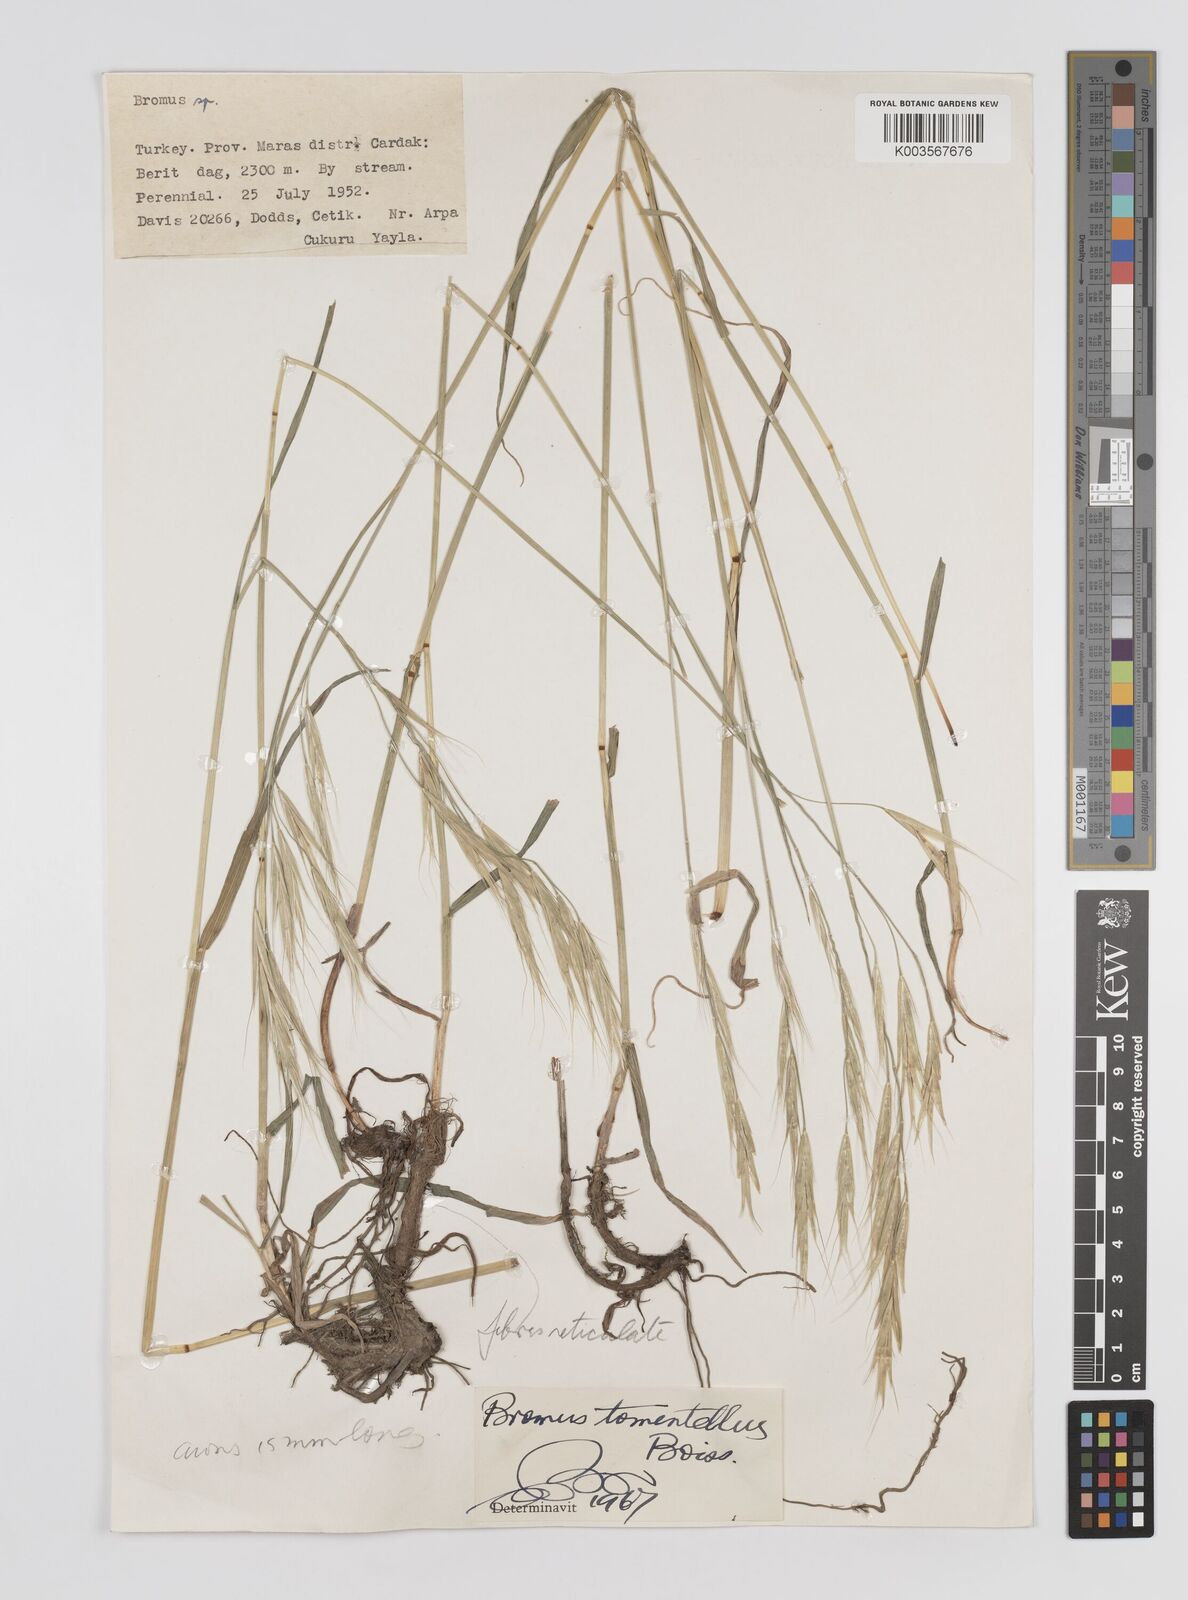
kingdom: Plantae
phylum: Tracheophyta
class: Liliopsida
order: Poales
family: Poaceae
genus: Bromus
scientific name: Bromus
